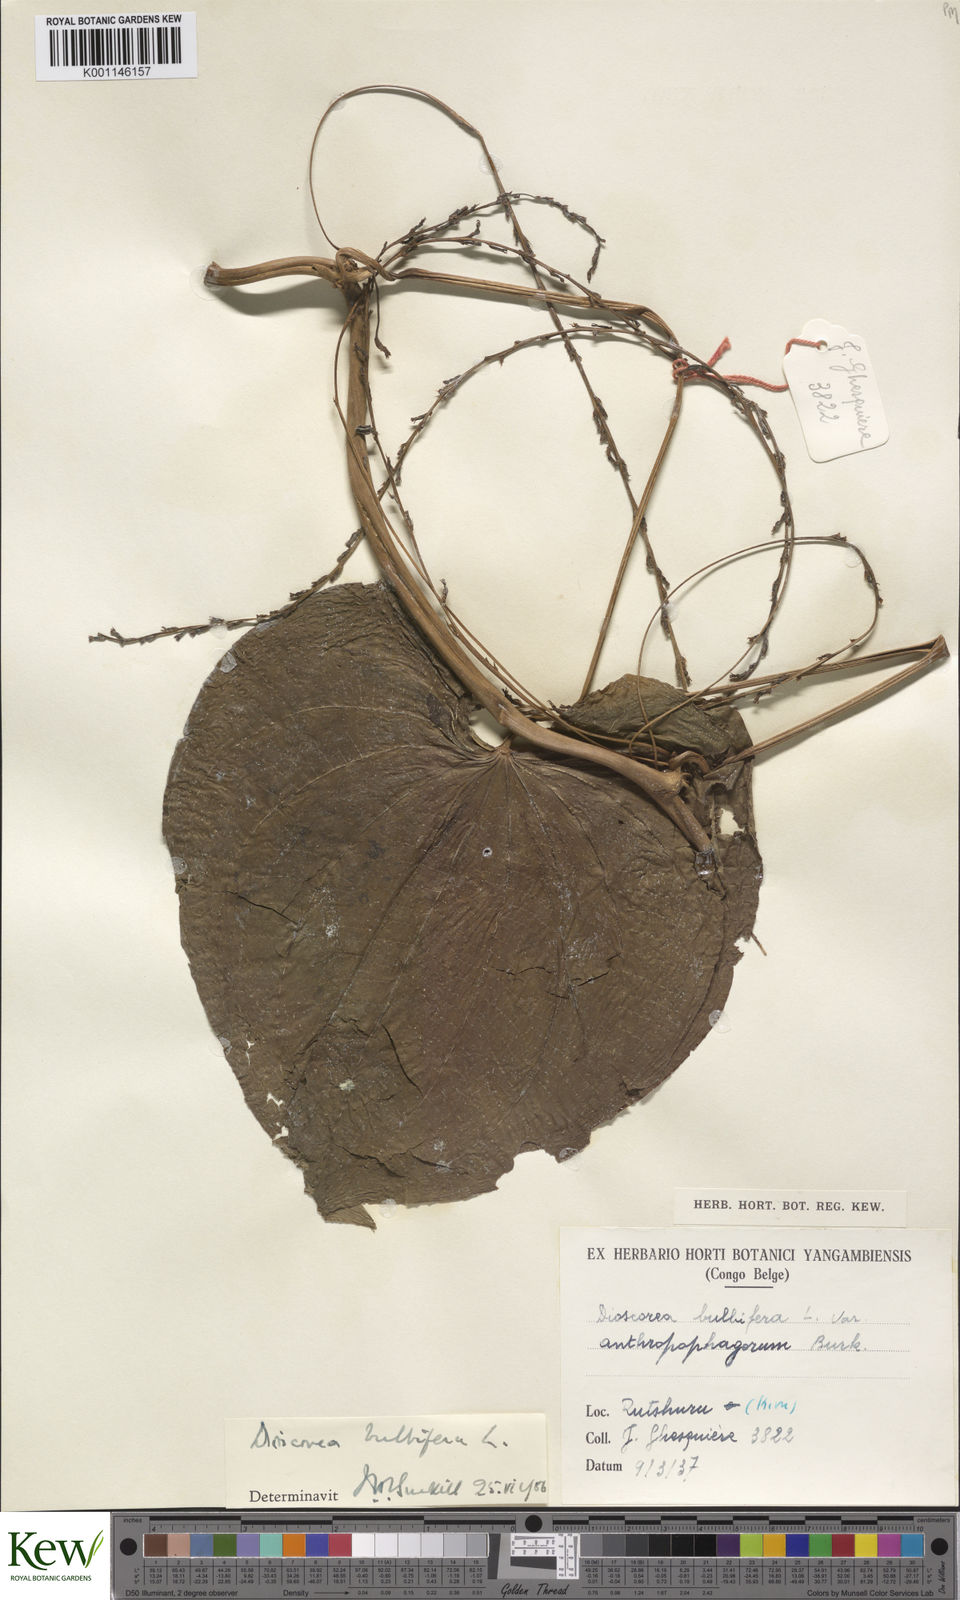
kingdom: Plantae
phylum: Tracheophyta
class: Liliopsida
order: Dioscoreales
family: Dioscoreaceae
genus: Dioscorea
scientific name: Dioscorea bulbifera
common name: Air yam
